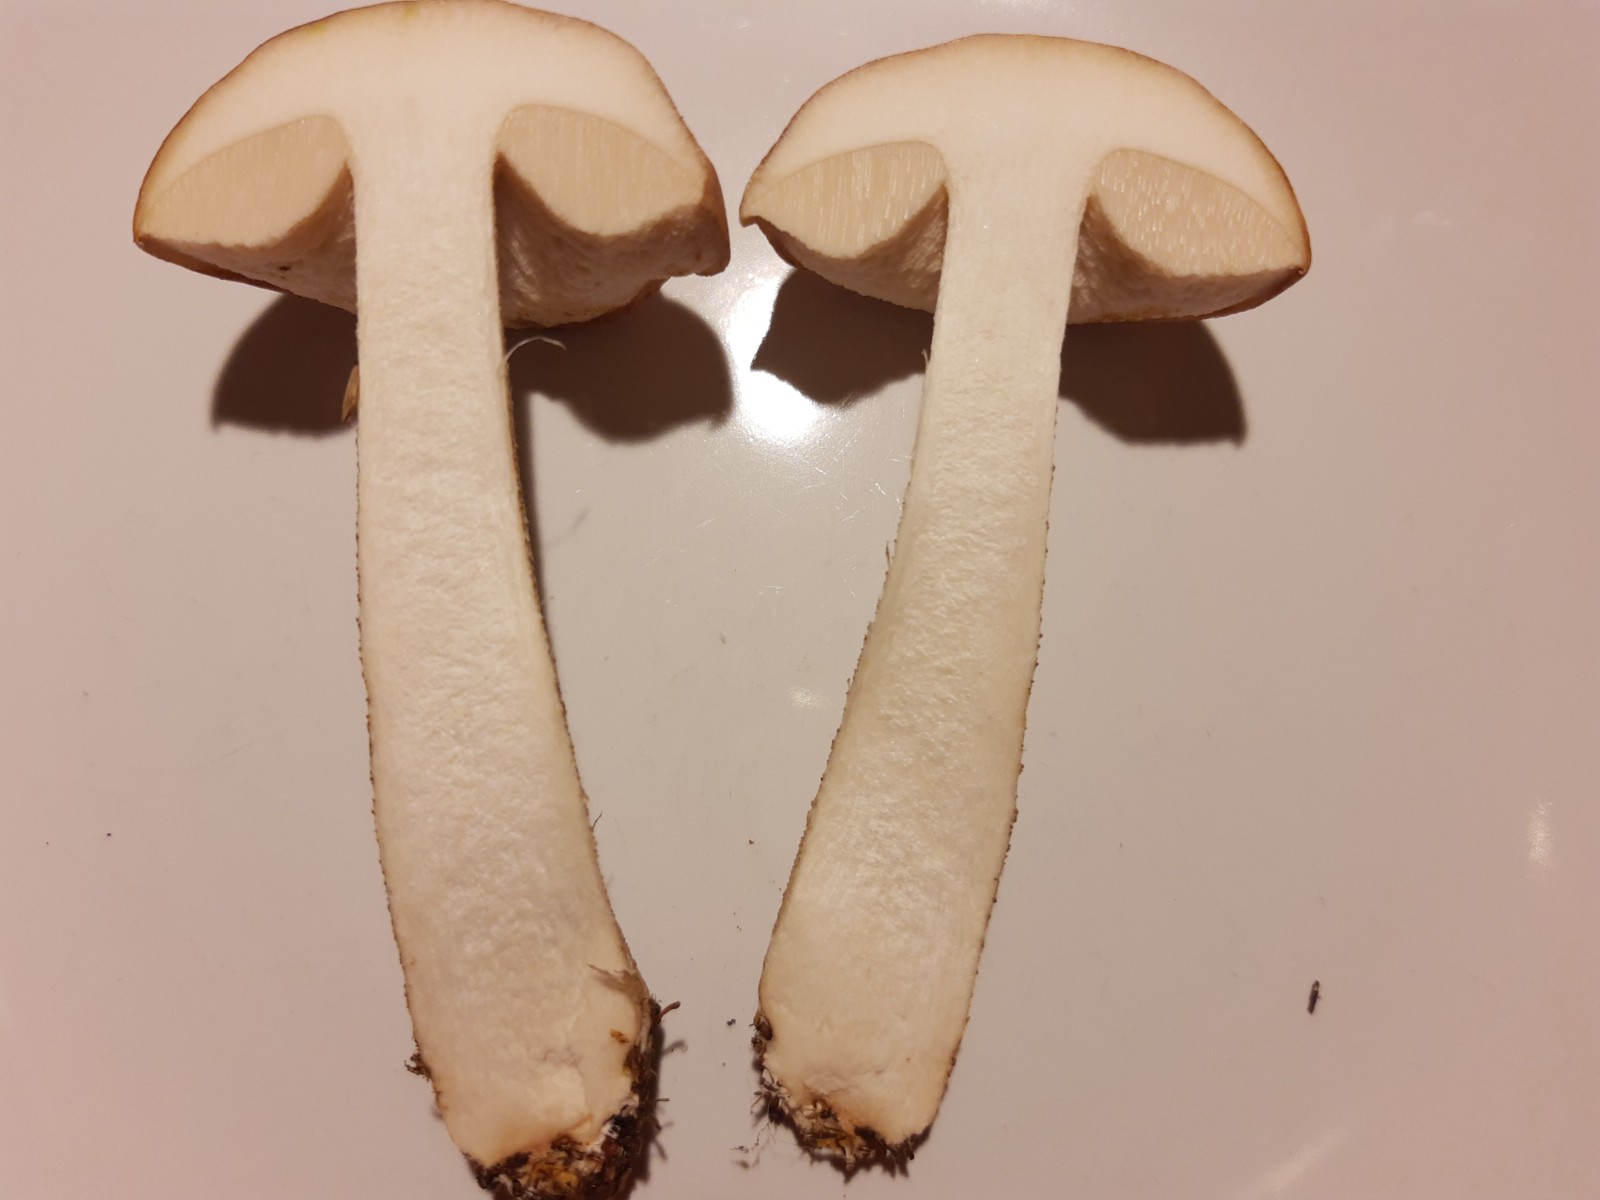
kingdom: Fungi
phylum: Basidiomycota
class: Agaricomycetes
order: Boletales
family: Boletaceae
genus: Leccinum
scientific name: Leccinum scabrum
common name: brun skælrørhat
